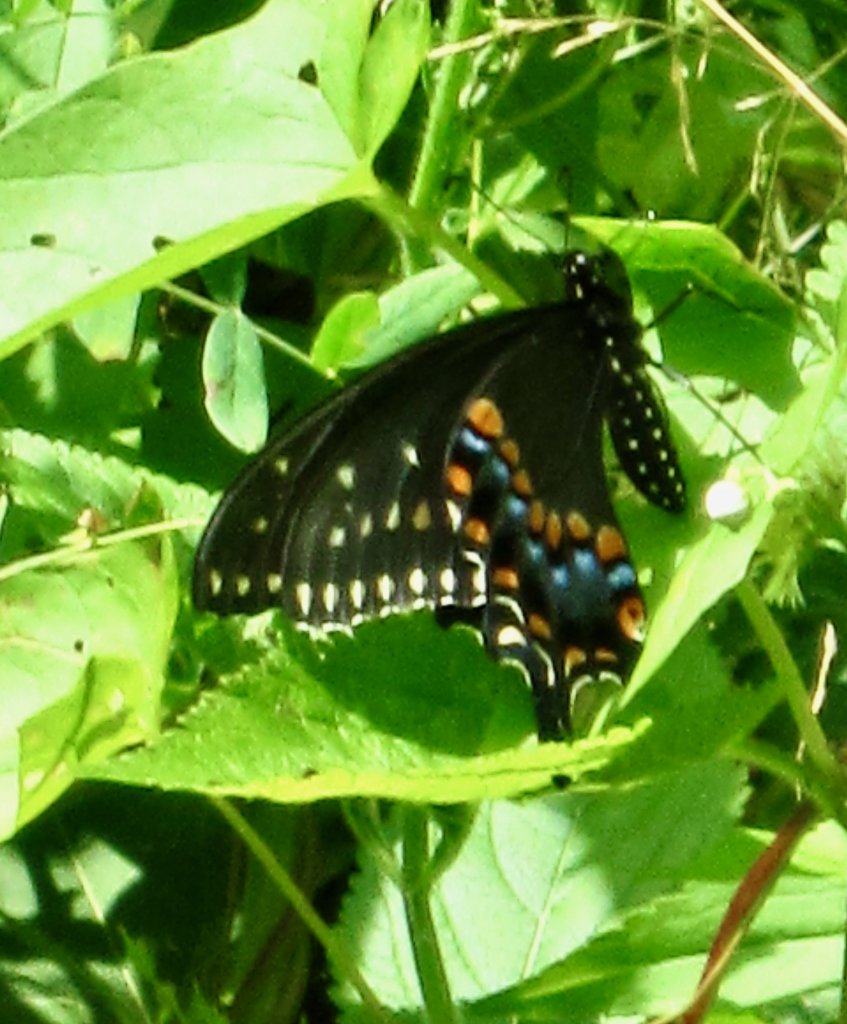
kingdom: Animalia
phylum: Arthropoda
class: Insecta
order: Lepidoptera
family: Papilionidae
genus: Papilio
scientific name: Papilio polyxenes
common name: Black Swallowtail
